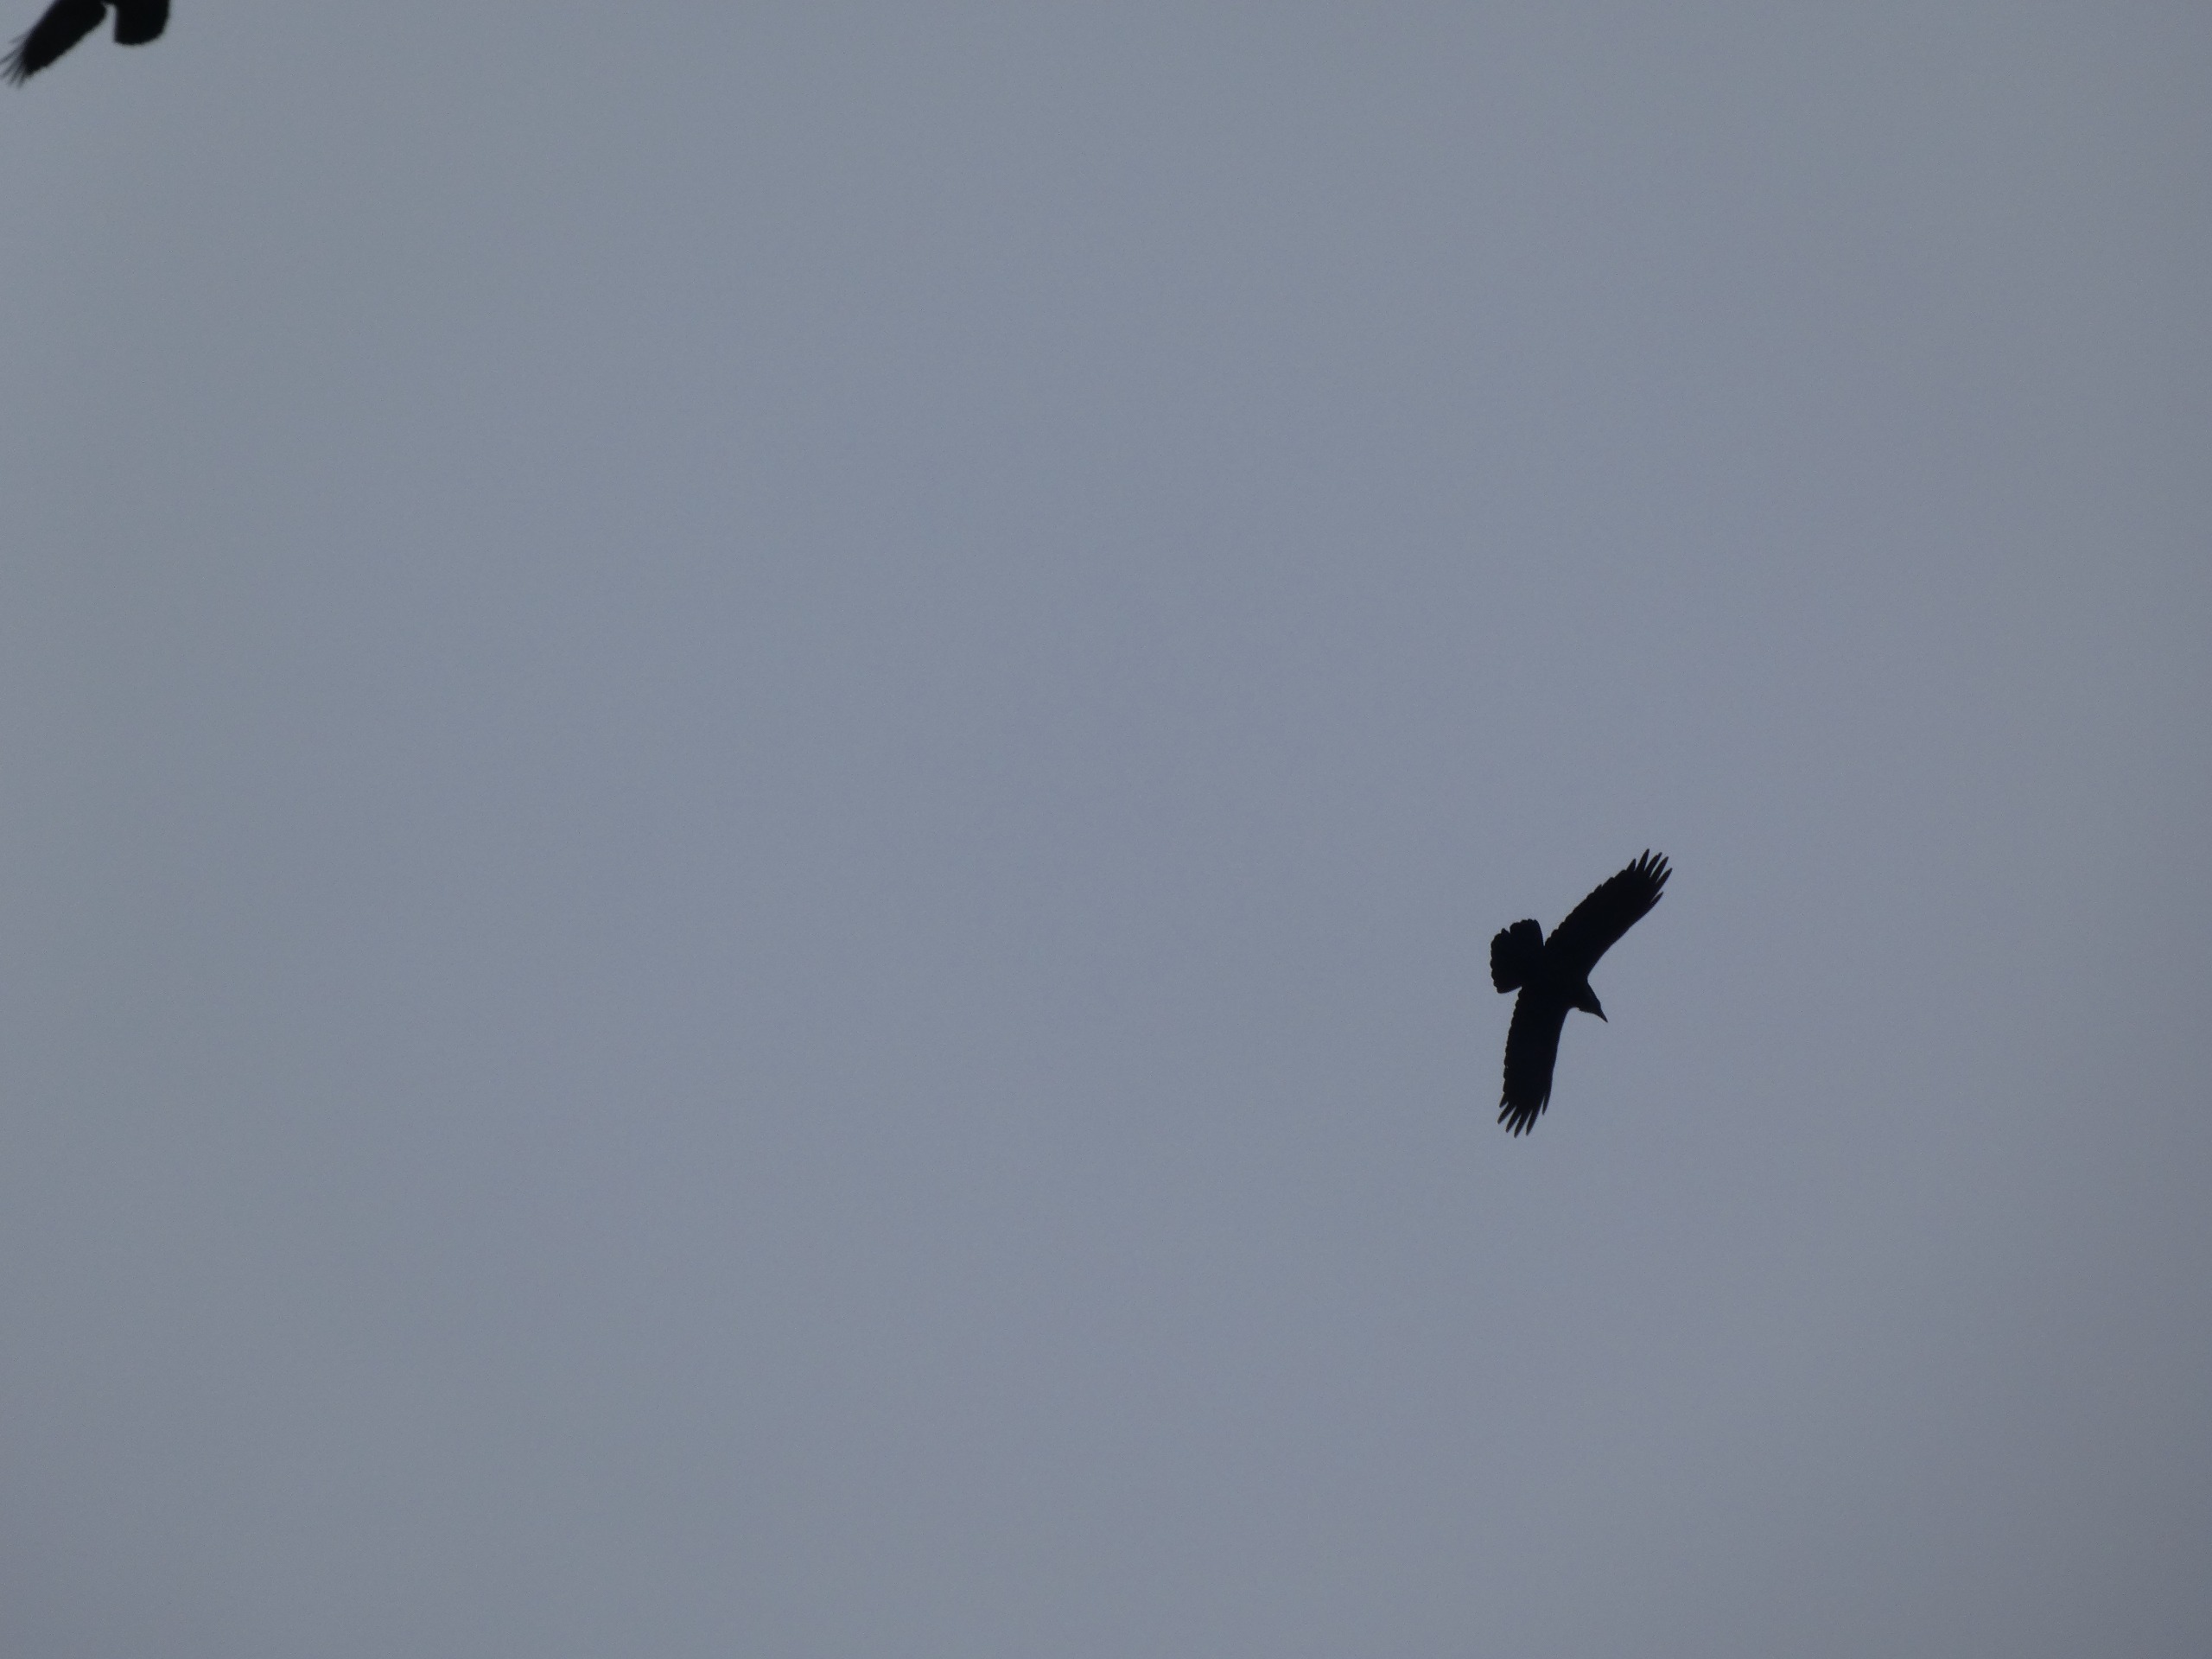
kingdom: Animalia
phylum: Chordata
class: Aves
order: Passeriformes
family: Corvidae
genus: Corvus
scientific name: Corvus corax
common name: Ravn
